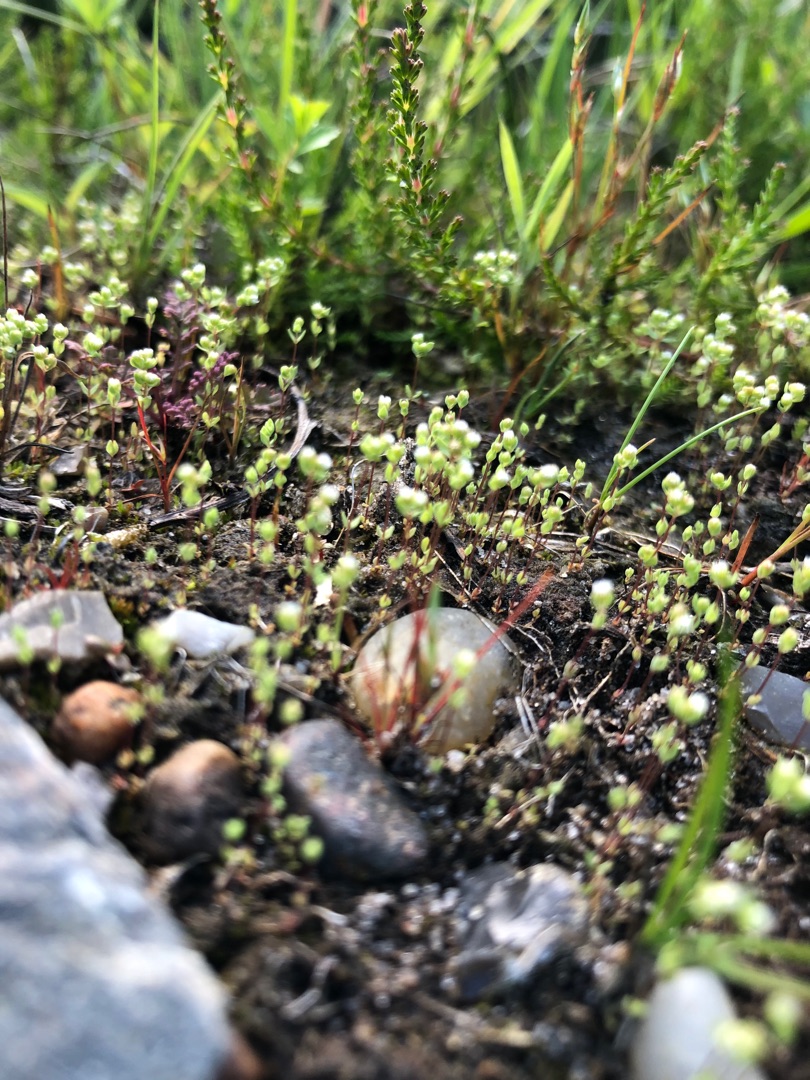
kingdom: Plantae
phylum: Tracheophyta
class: Magnoliopsida
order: Malpighiales
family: Linaceae
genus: Radiola
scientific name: Radiola linoides
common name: Tusindfrø
